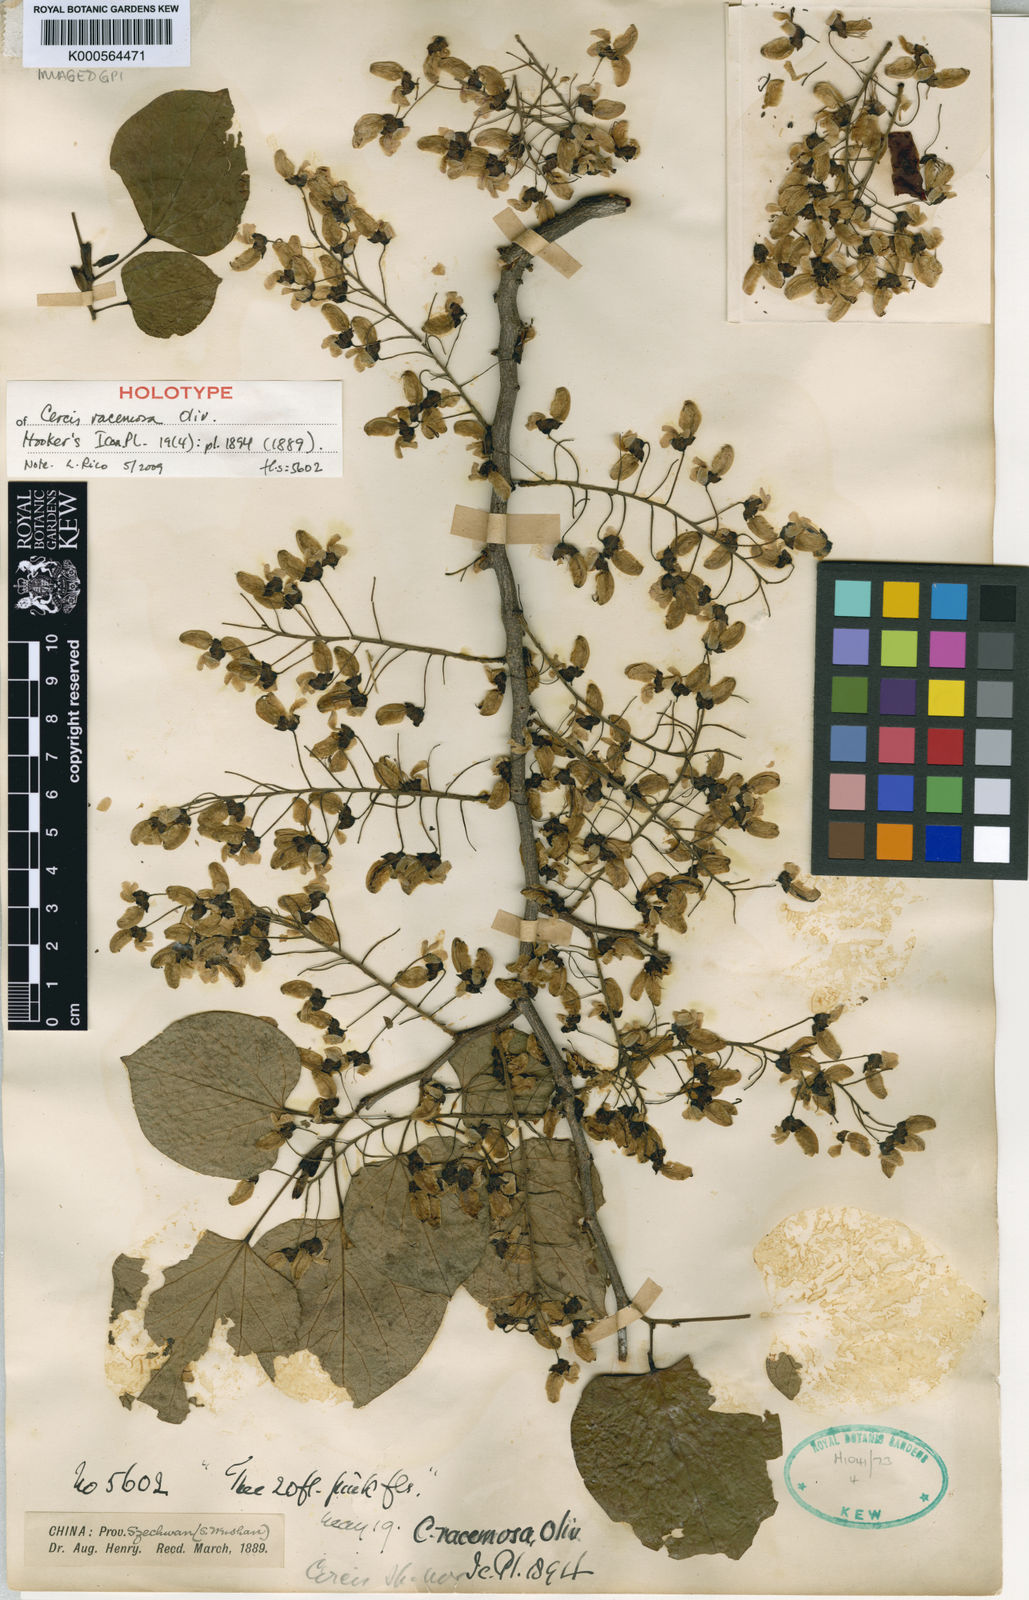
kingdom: Plantae
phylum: Tracheophyta
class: Magnoliopsida
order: Fabales
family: Fabaceae
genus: Cercis
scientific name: Cercis racemosa
